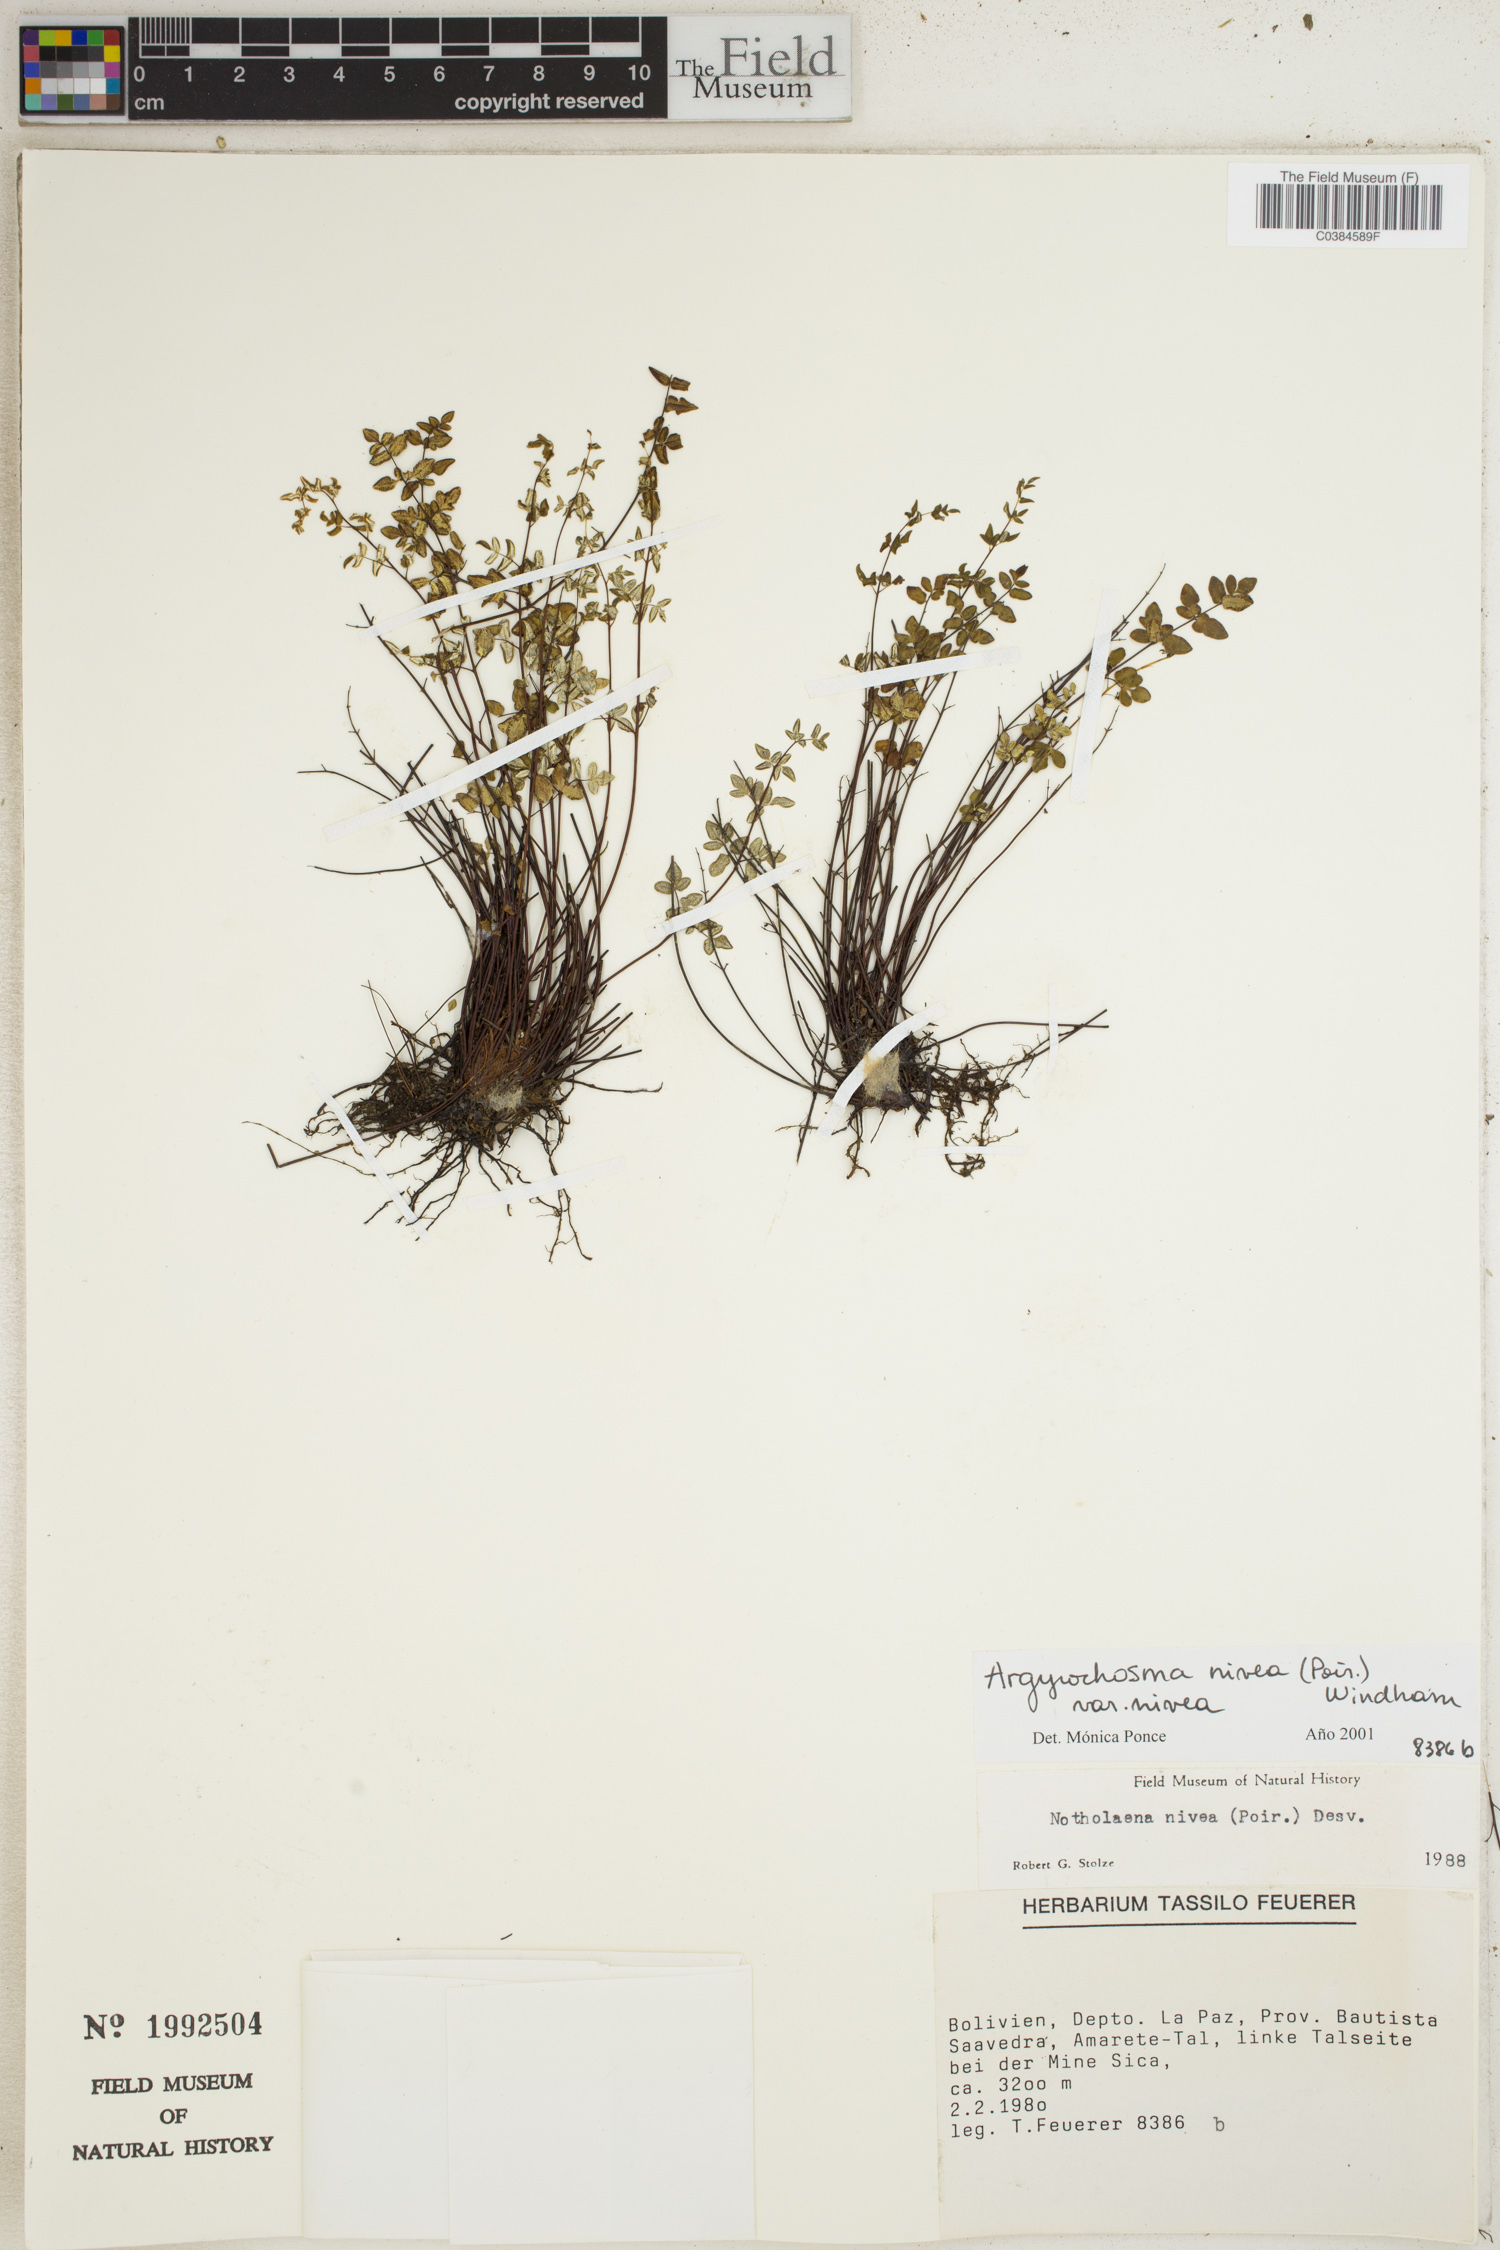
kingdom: Plantae
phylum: Tracheophyta
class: Polypodiopsida
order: Polypodiales
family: Pteridaceae
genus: Argyrochosma
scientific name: Argyrochosma nivea
